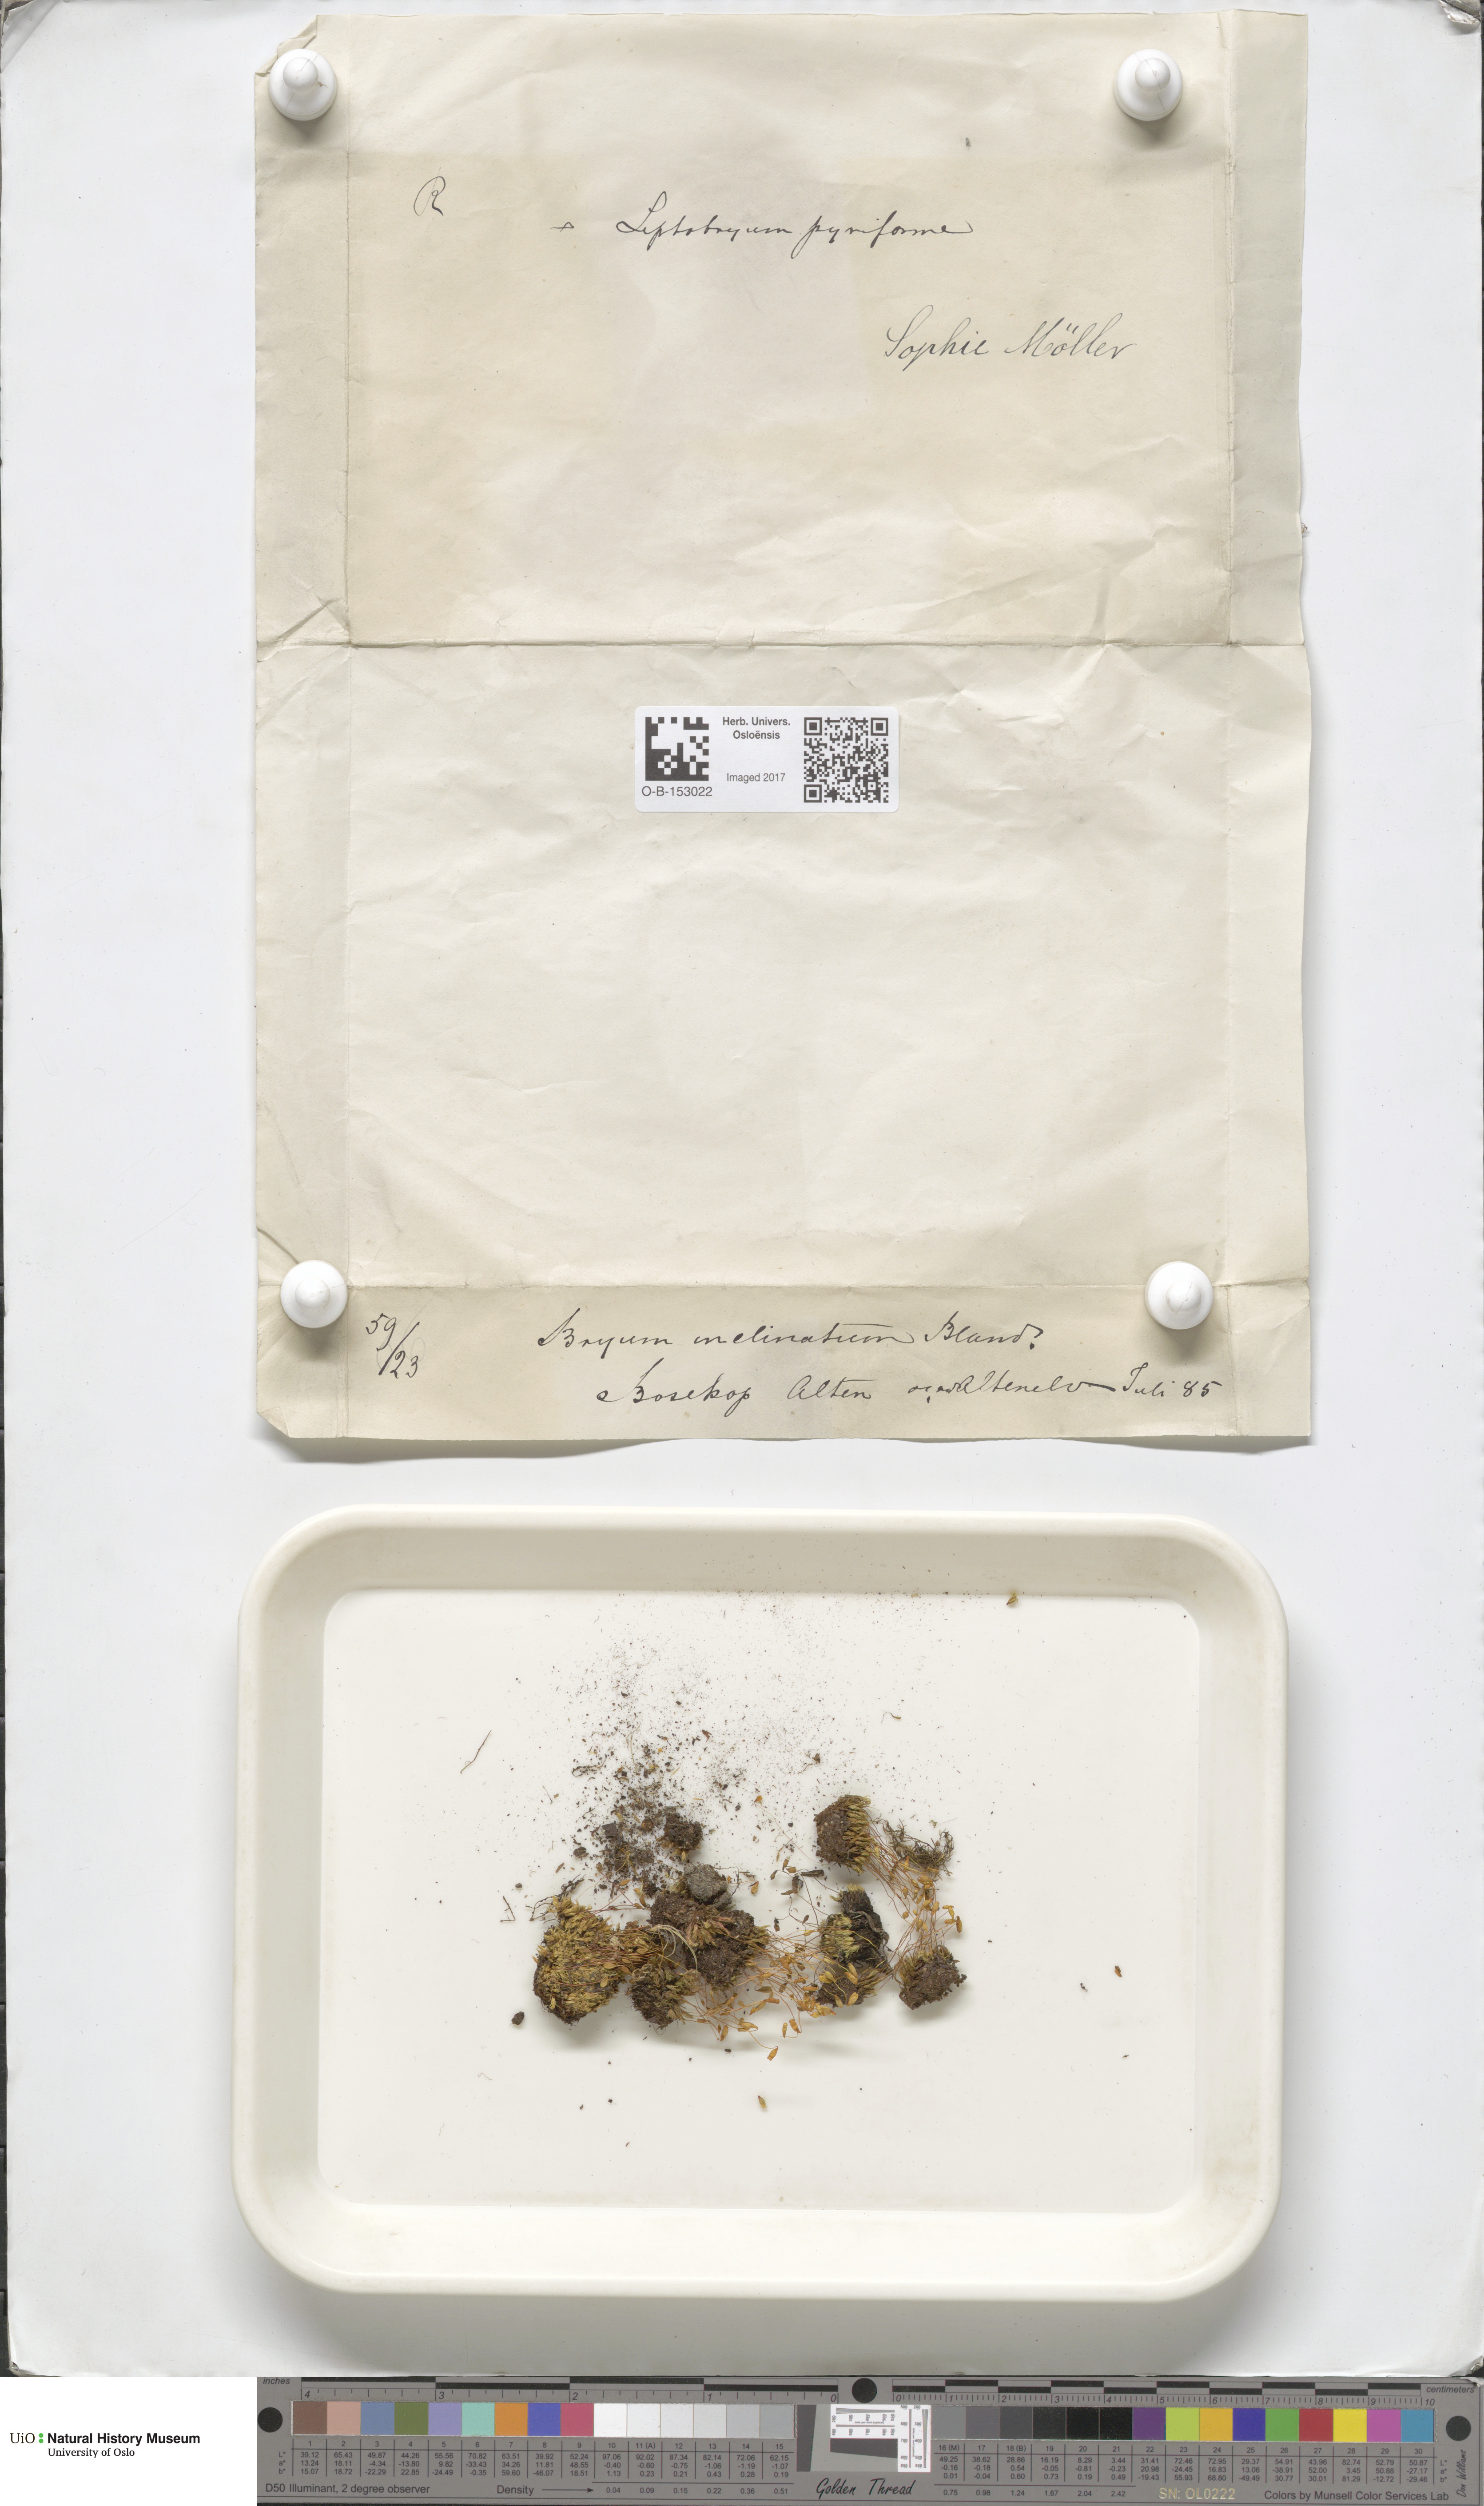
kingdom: Plantae
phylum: Bryophyta
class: Bryopsida
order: Bryales
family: Bryaceae
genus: Ptychostomum
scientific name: Ptychostomum inclinatum
